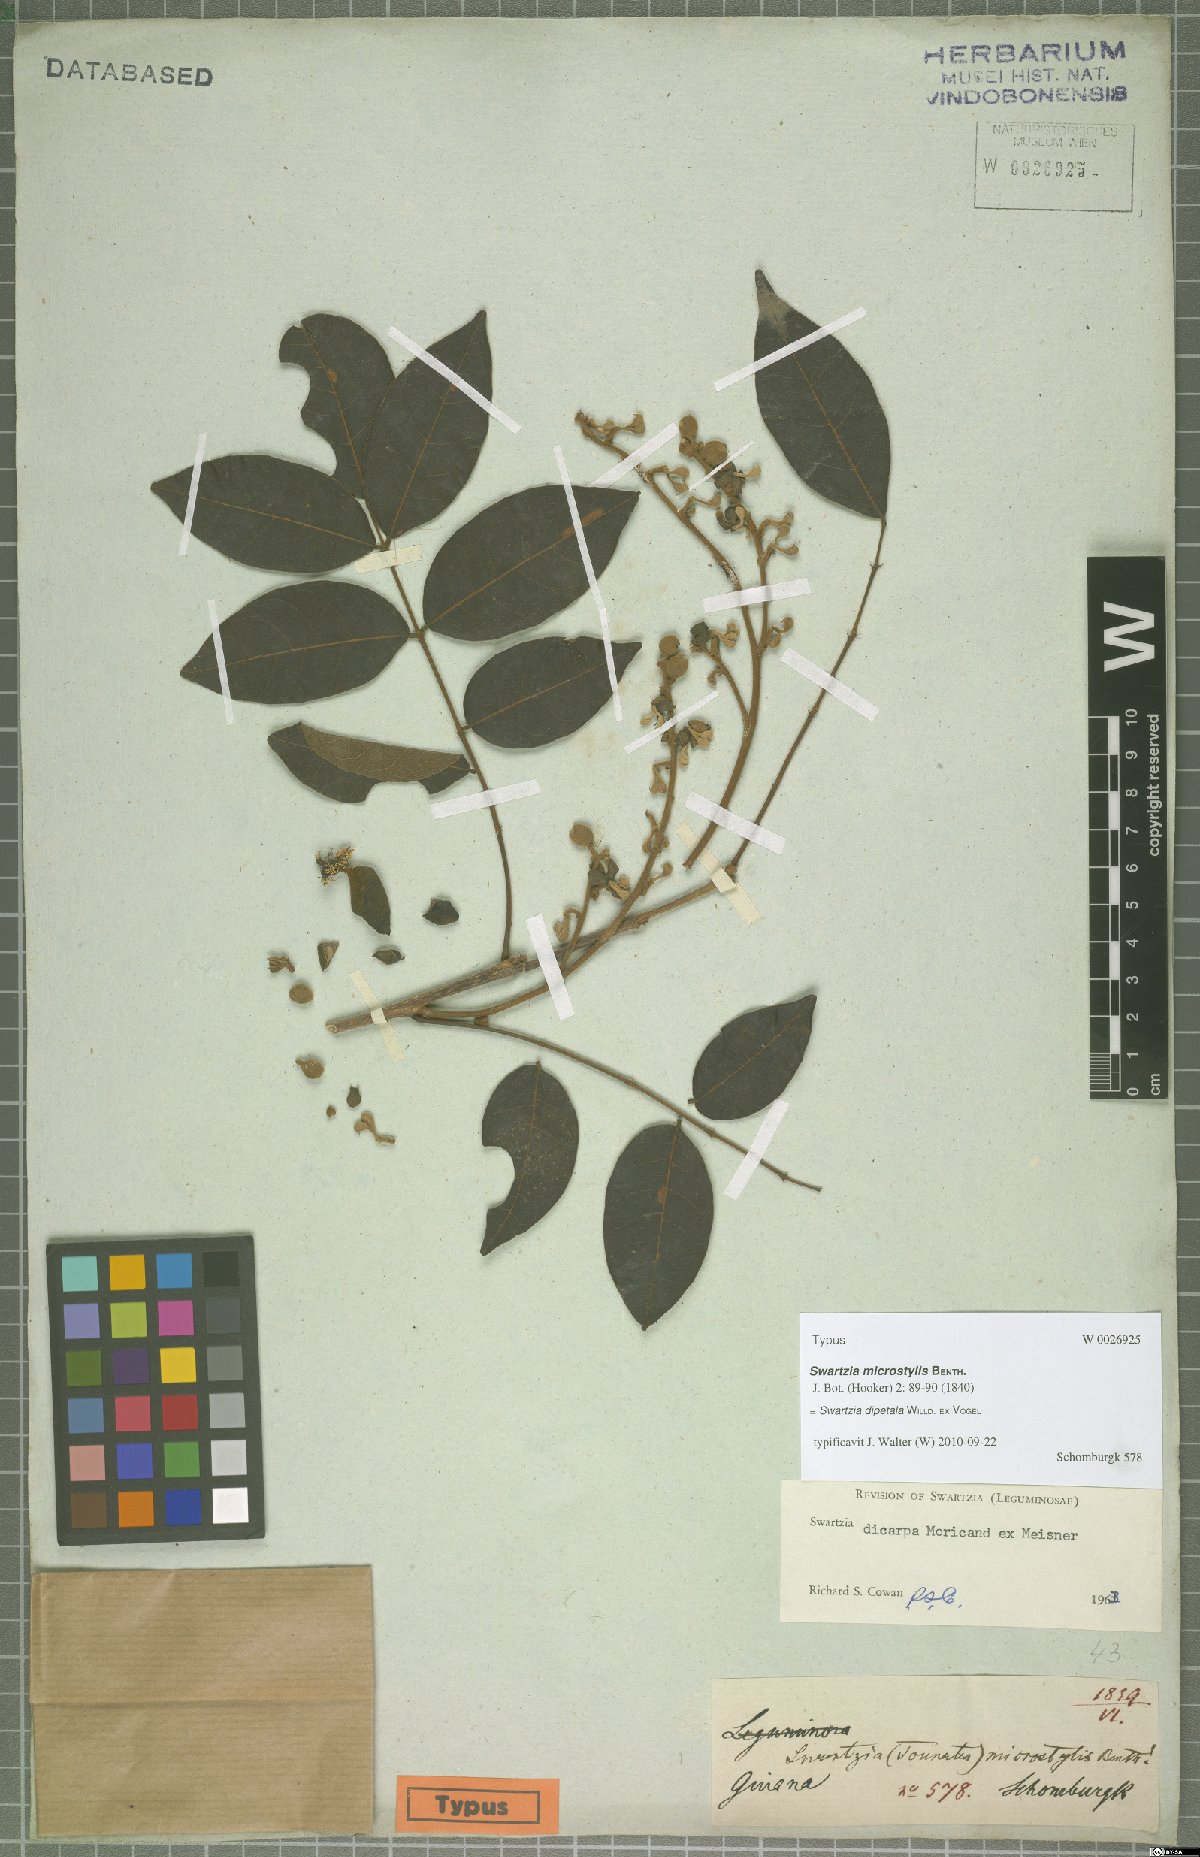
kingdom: Plantae
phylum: Tracheophyta
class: Magnoliopsida
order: Fabales
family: Fabaceae
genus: Swartzia
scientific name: Swartzia dipetala
